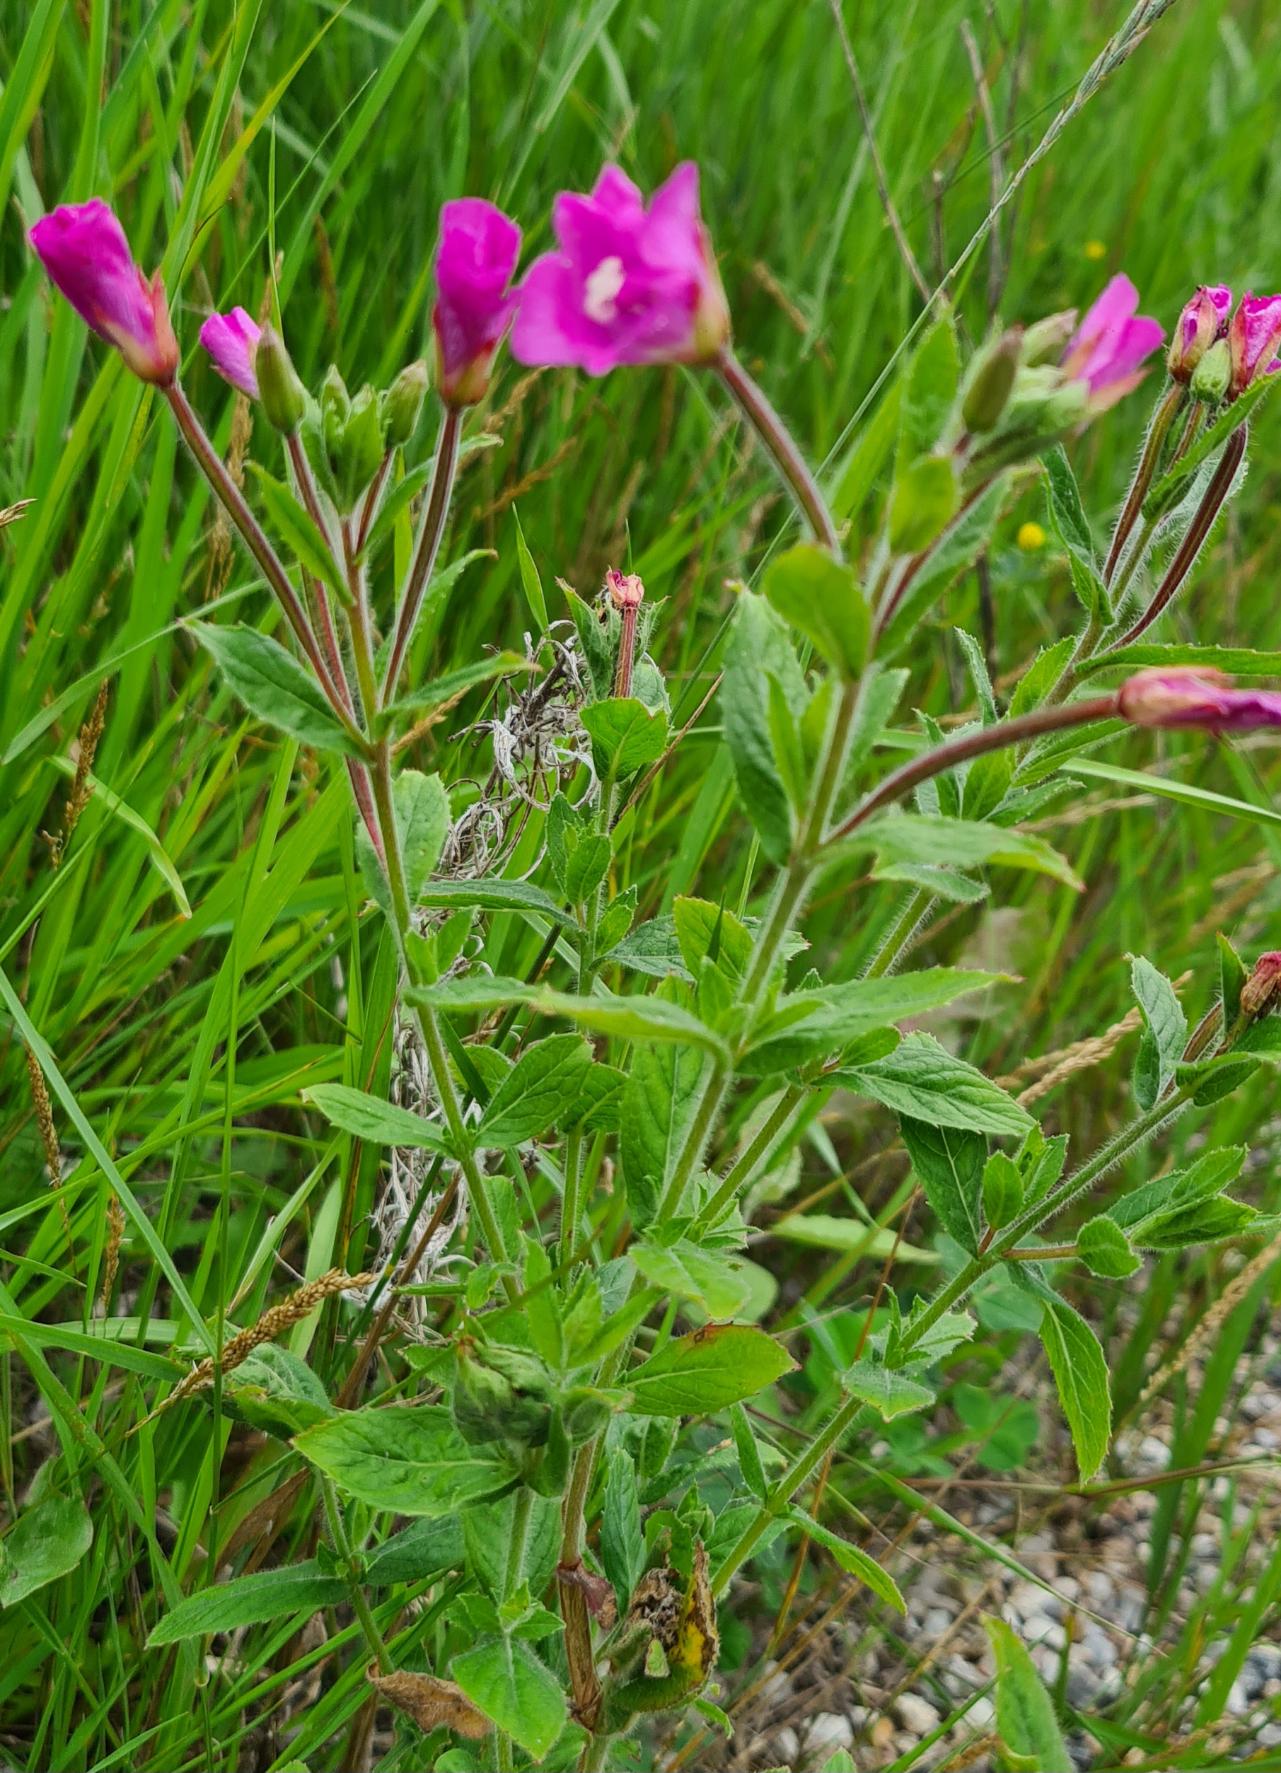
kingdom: Plantae
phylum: Tracheophyta
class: Magnoliopsida
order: Myrtales
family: Onagraceae
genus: Epilobium
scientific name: Epilobium hirsutum
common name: Lådden dueurt
